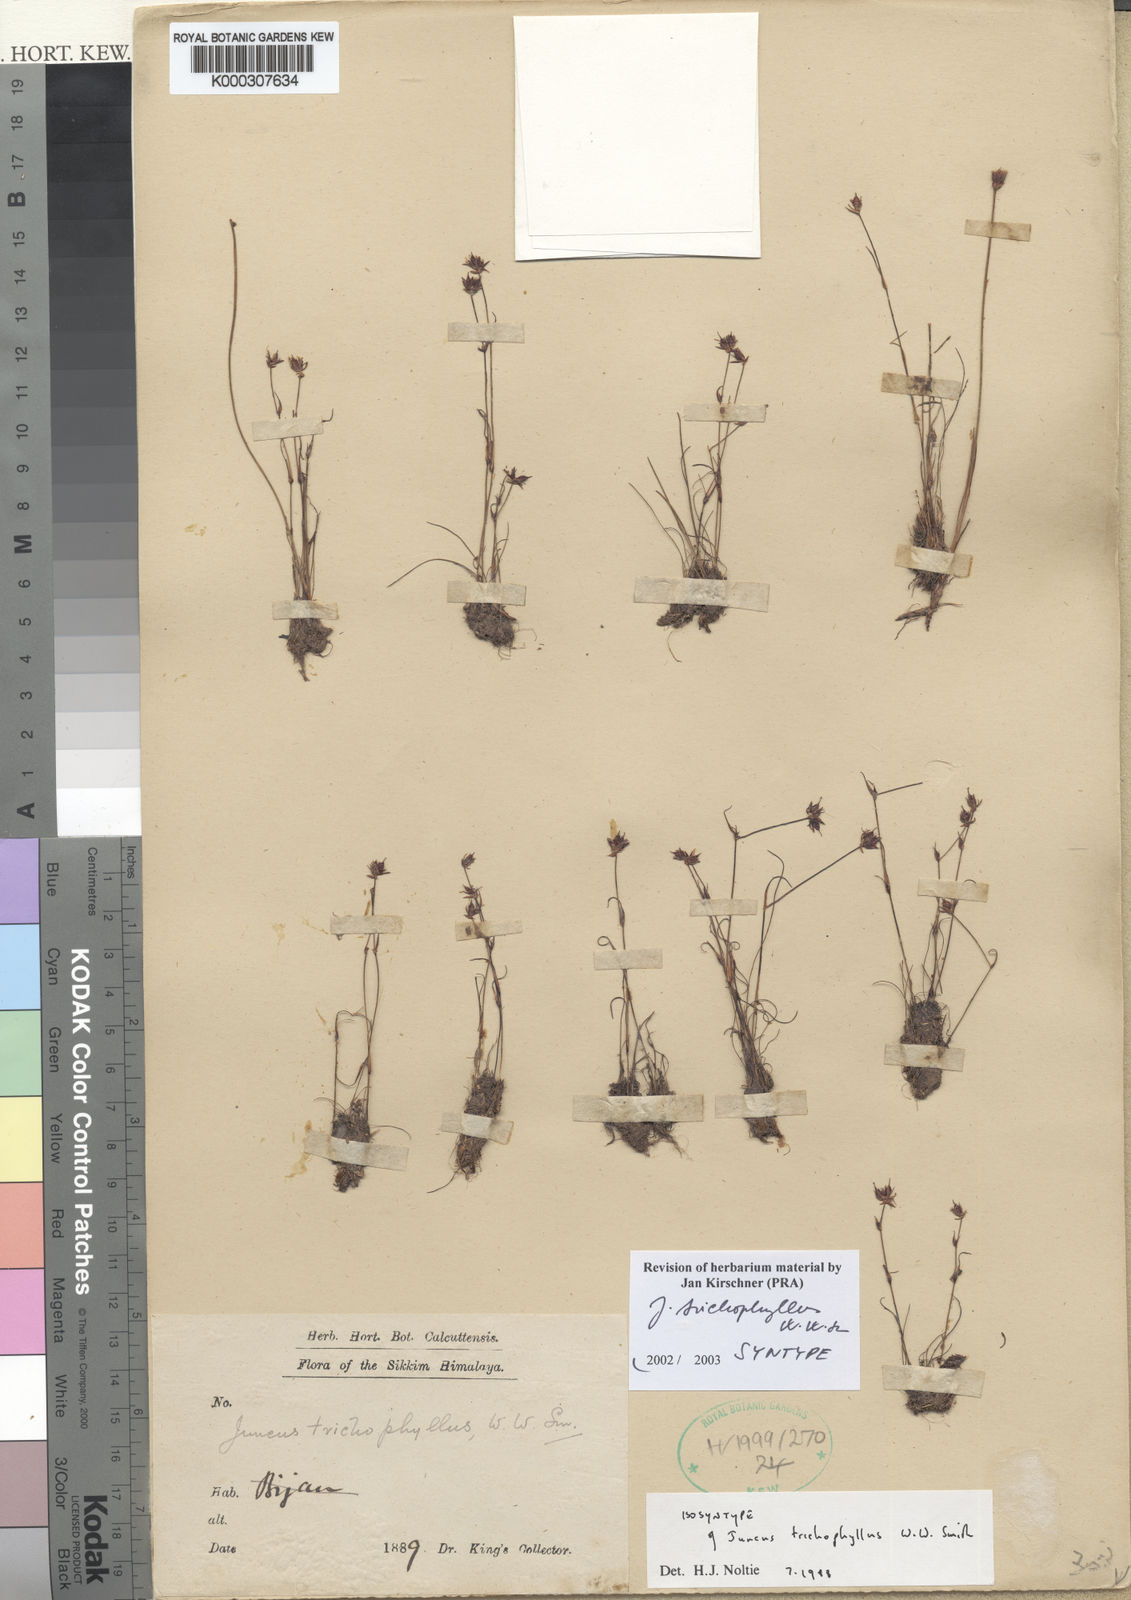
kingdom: Plantae
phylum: Tracheophyta
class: Liliopsida
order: Poales
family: Juncaceae
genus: Juncus
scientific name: Juncus trichophyllus
